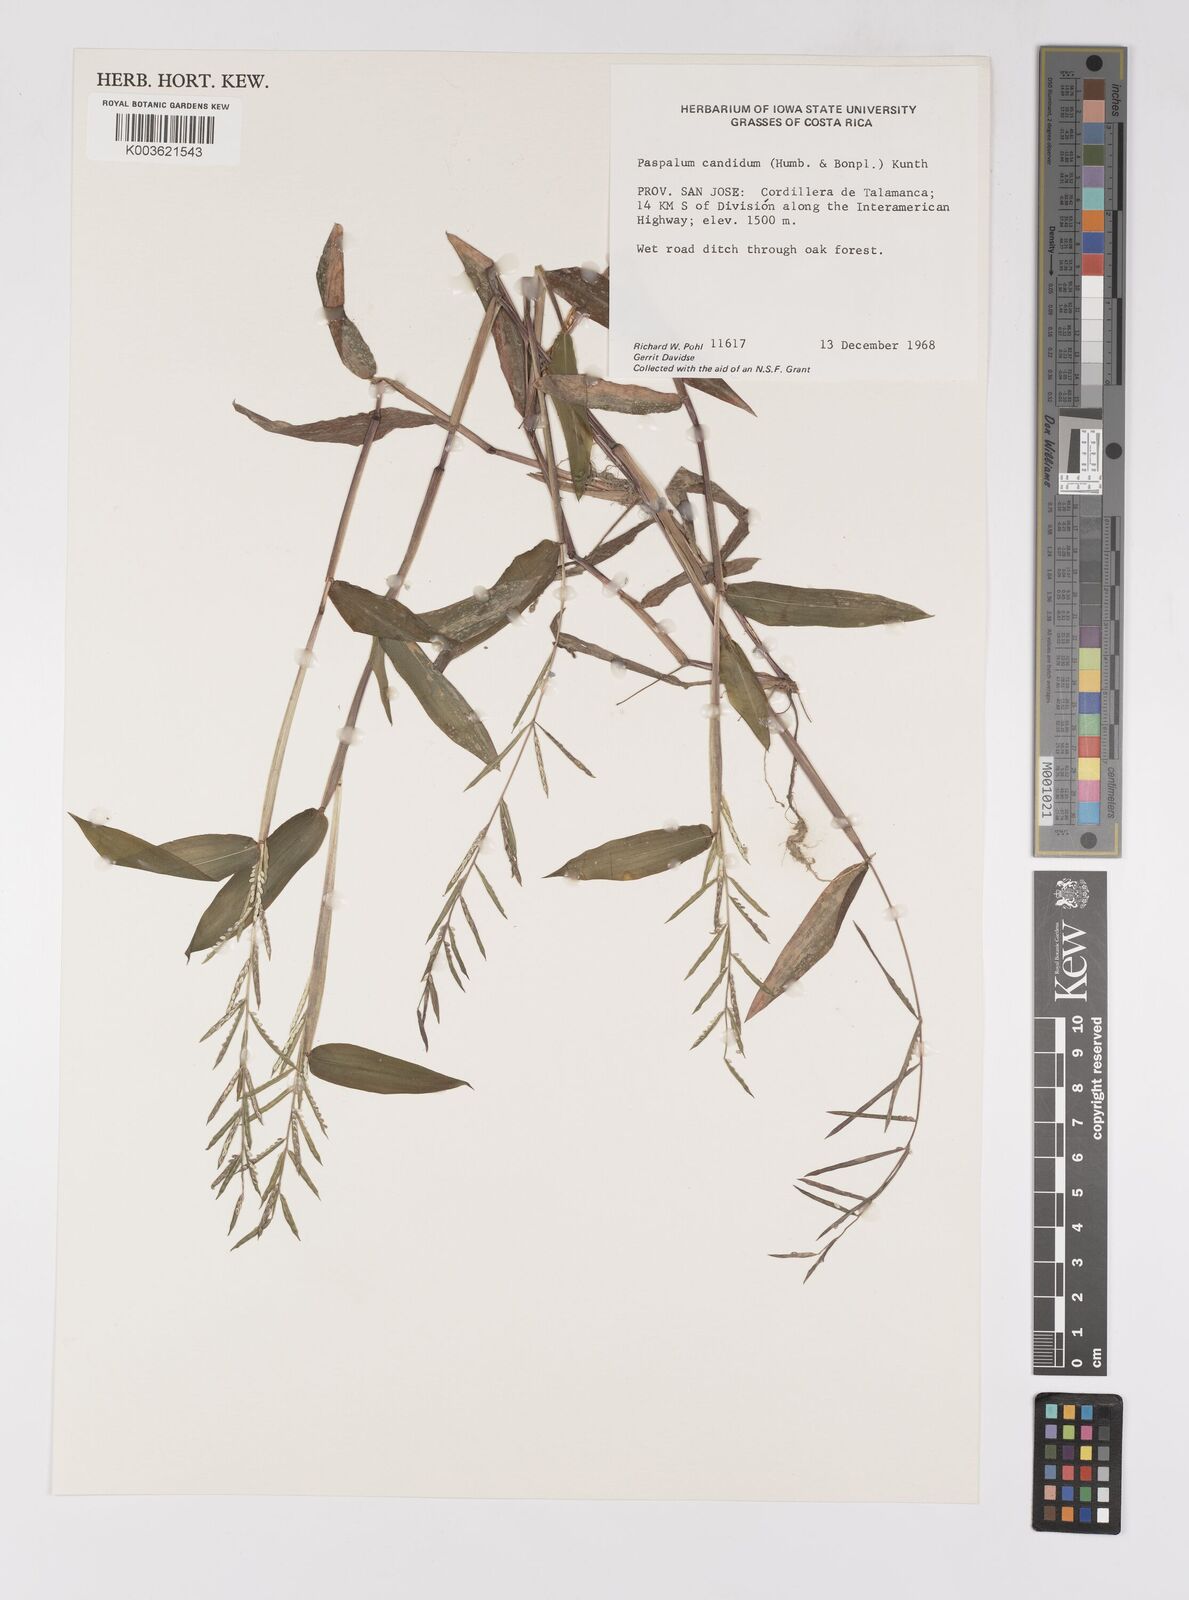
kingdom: Plantae
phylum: Tracheophyta
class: Liliopsida
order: Poales
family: Poaceae
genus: Paspalum
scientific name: Paspalum candidum
